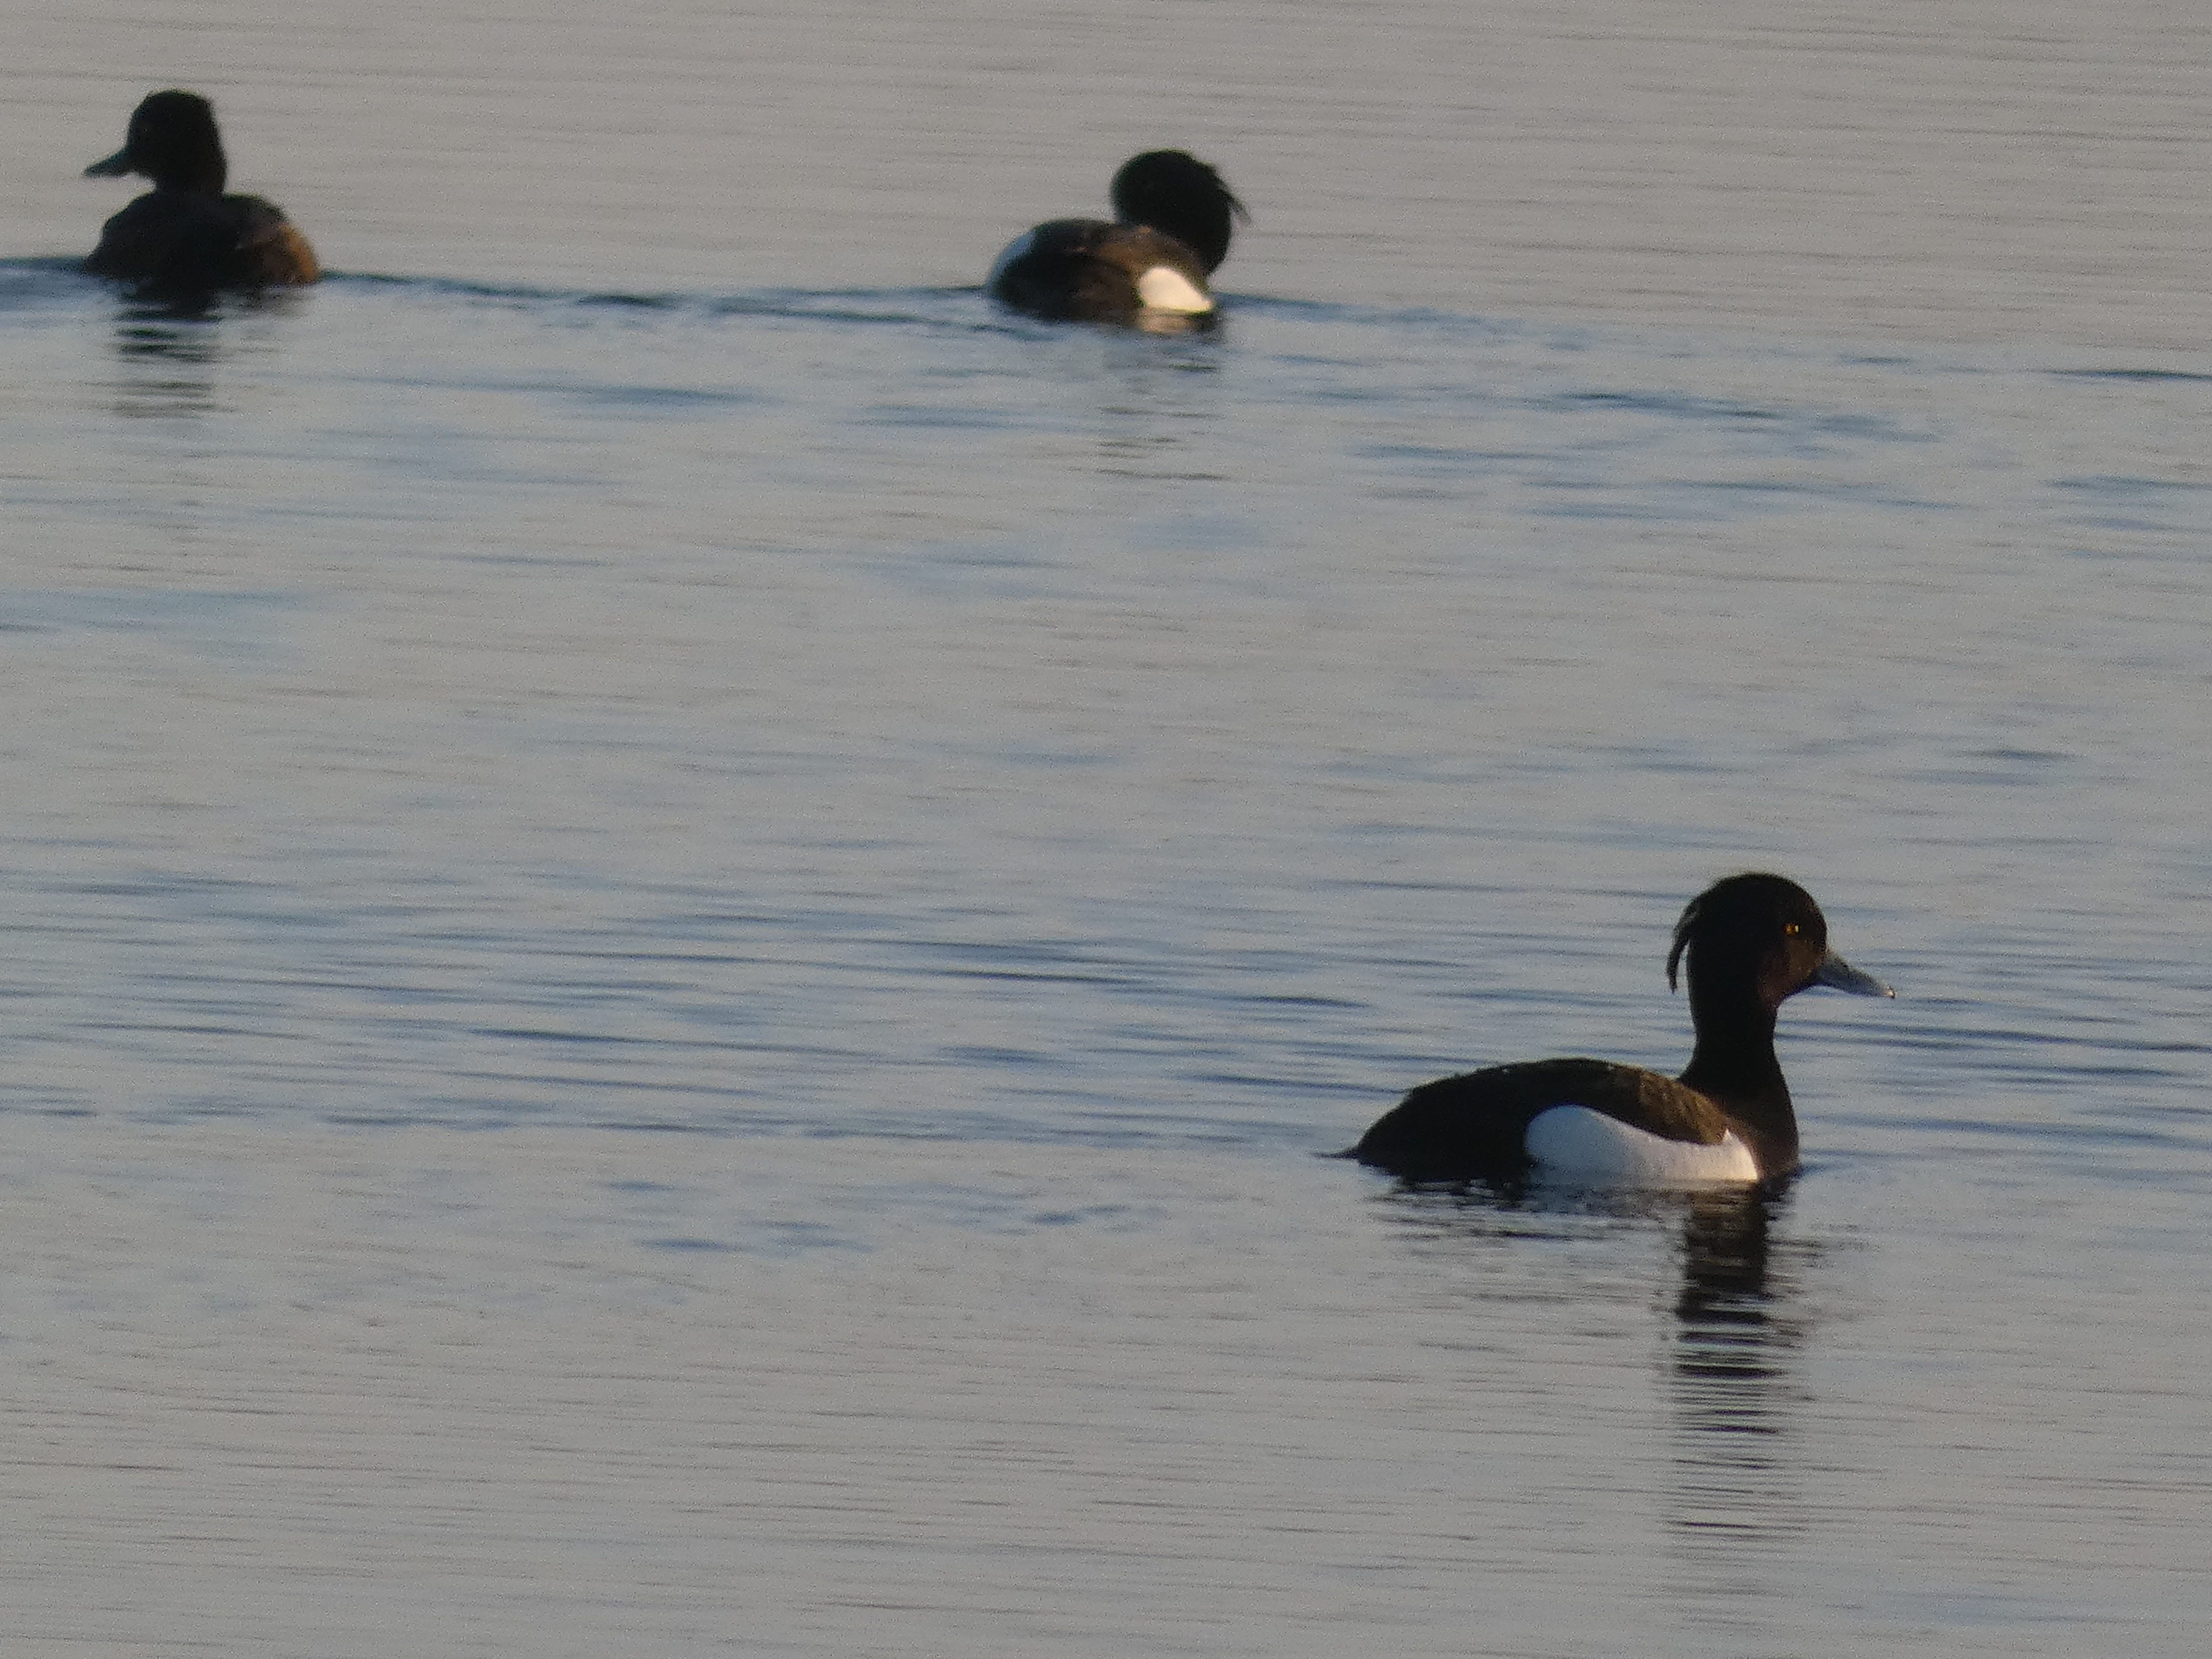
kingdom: Animalia
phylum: Chordata
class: Aves
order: Anseriformes
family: Anatidae
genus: Aythya
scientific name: Aythya fuligula
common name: Troldand
